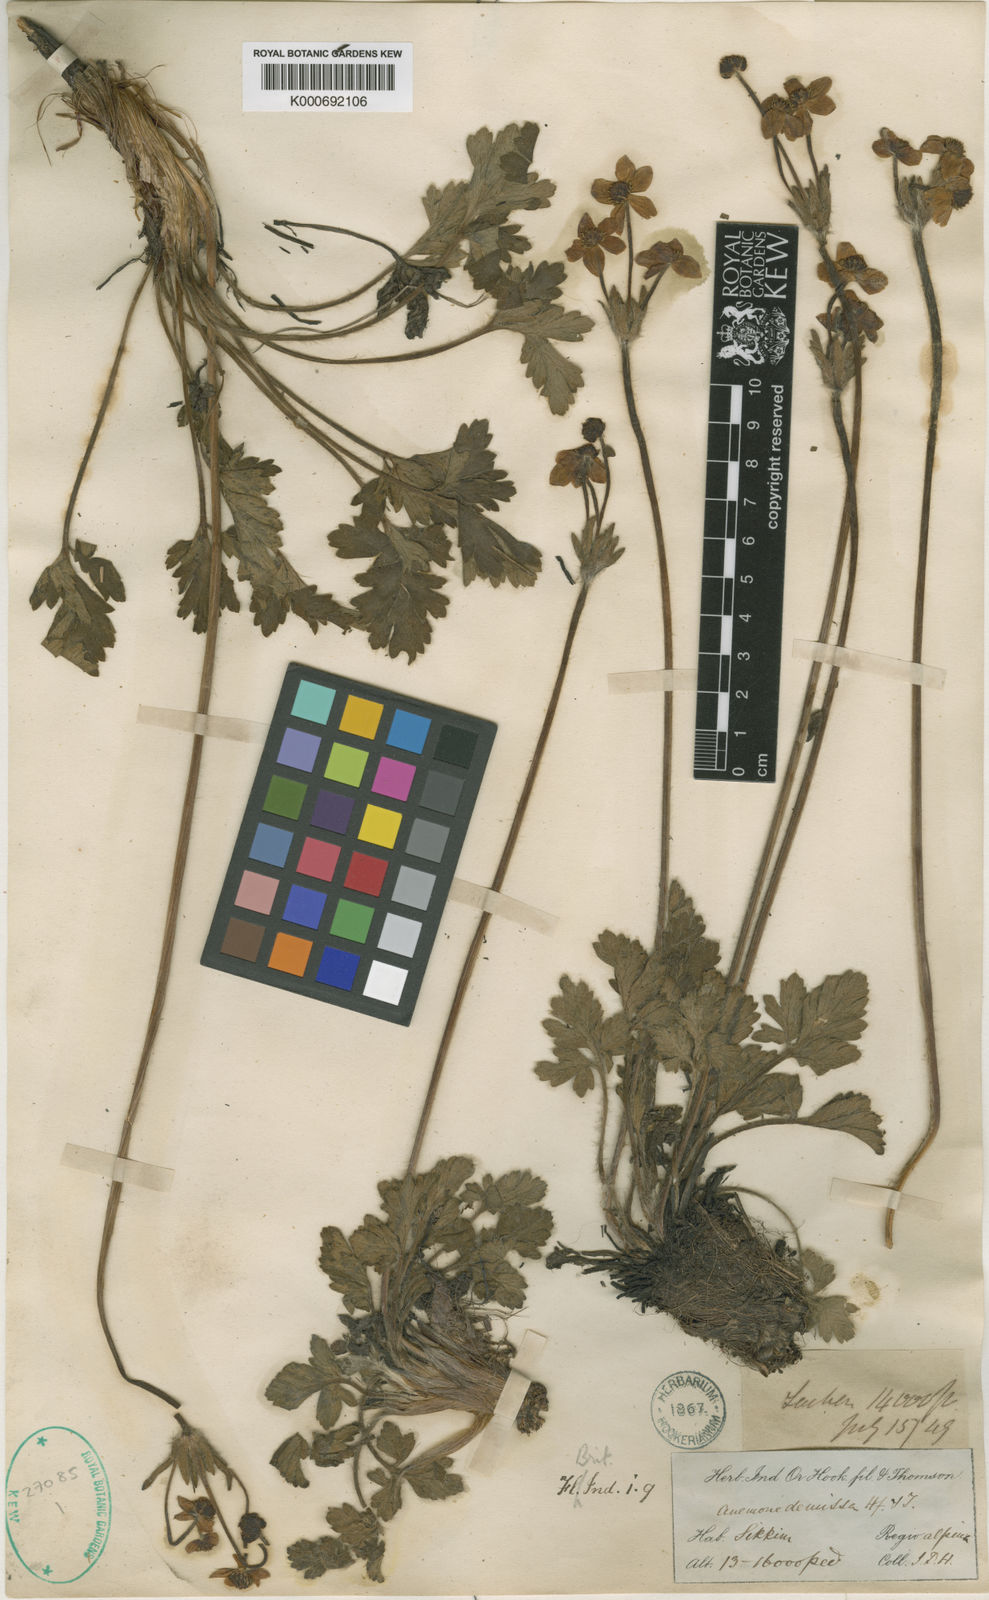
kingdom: Plantae
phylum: Tracheophyta
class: Magnoliopsida
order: Ranunculales
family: Ranunculaceae
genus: Anemonastrum
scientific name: Anemonastrum demissum
